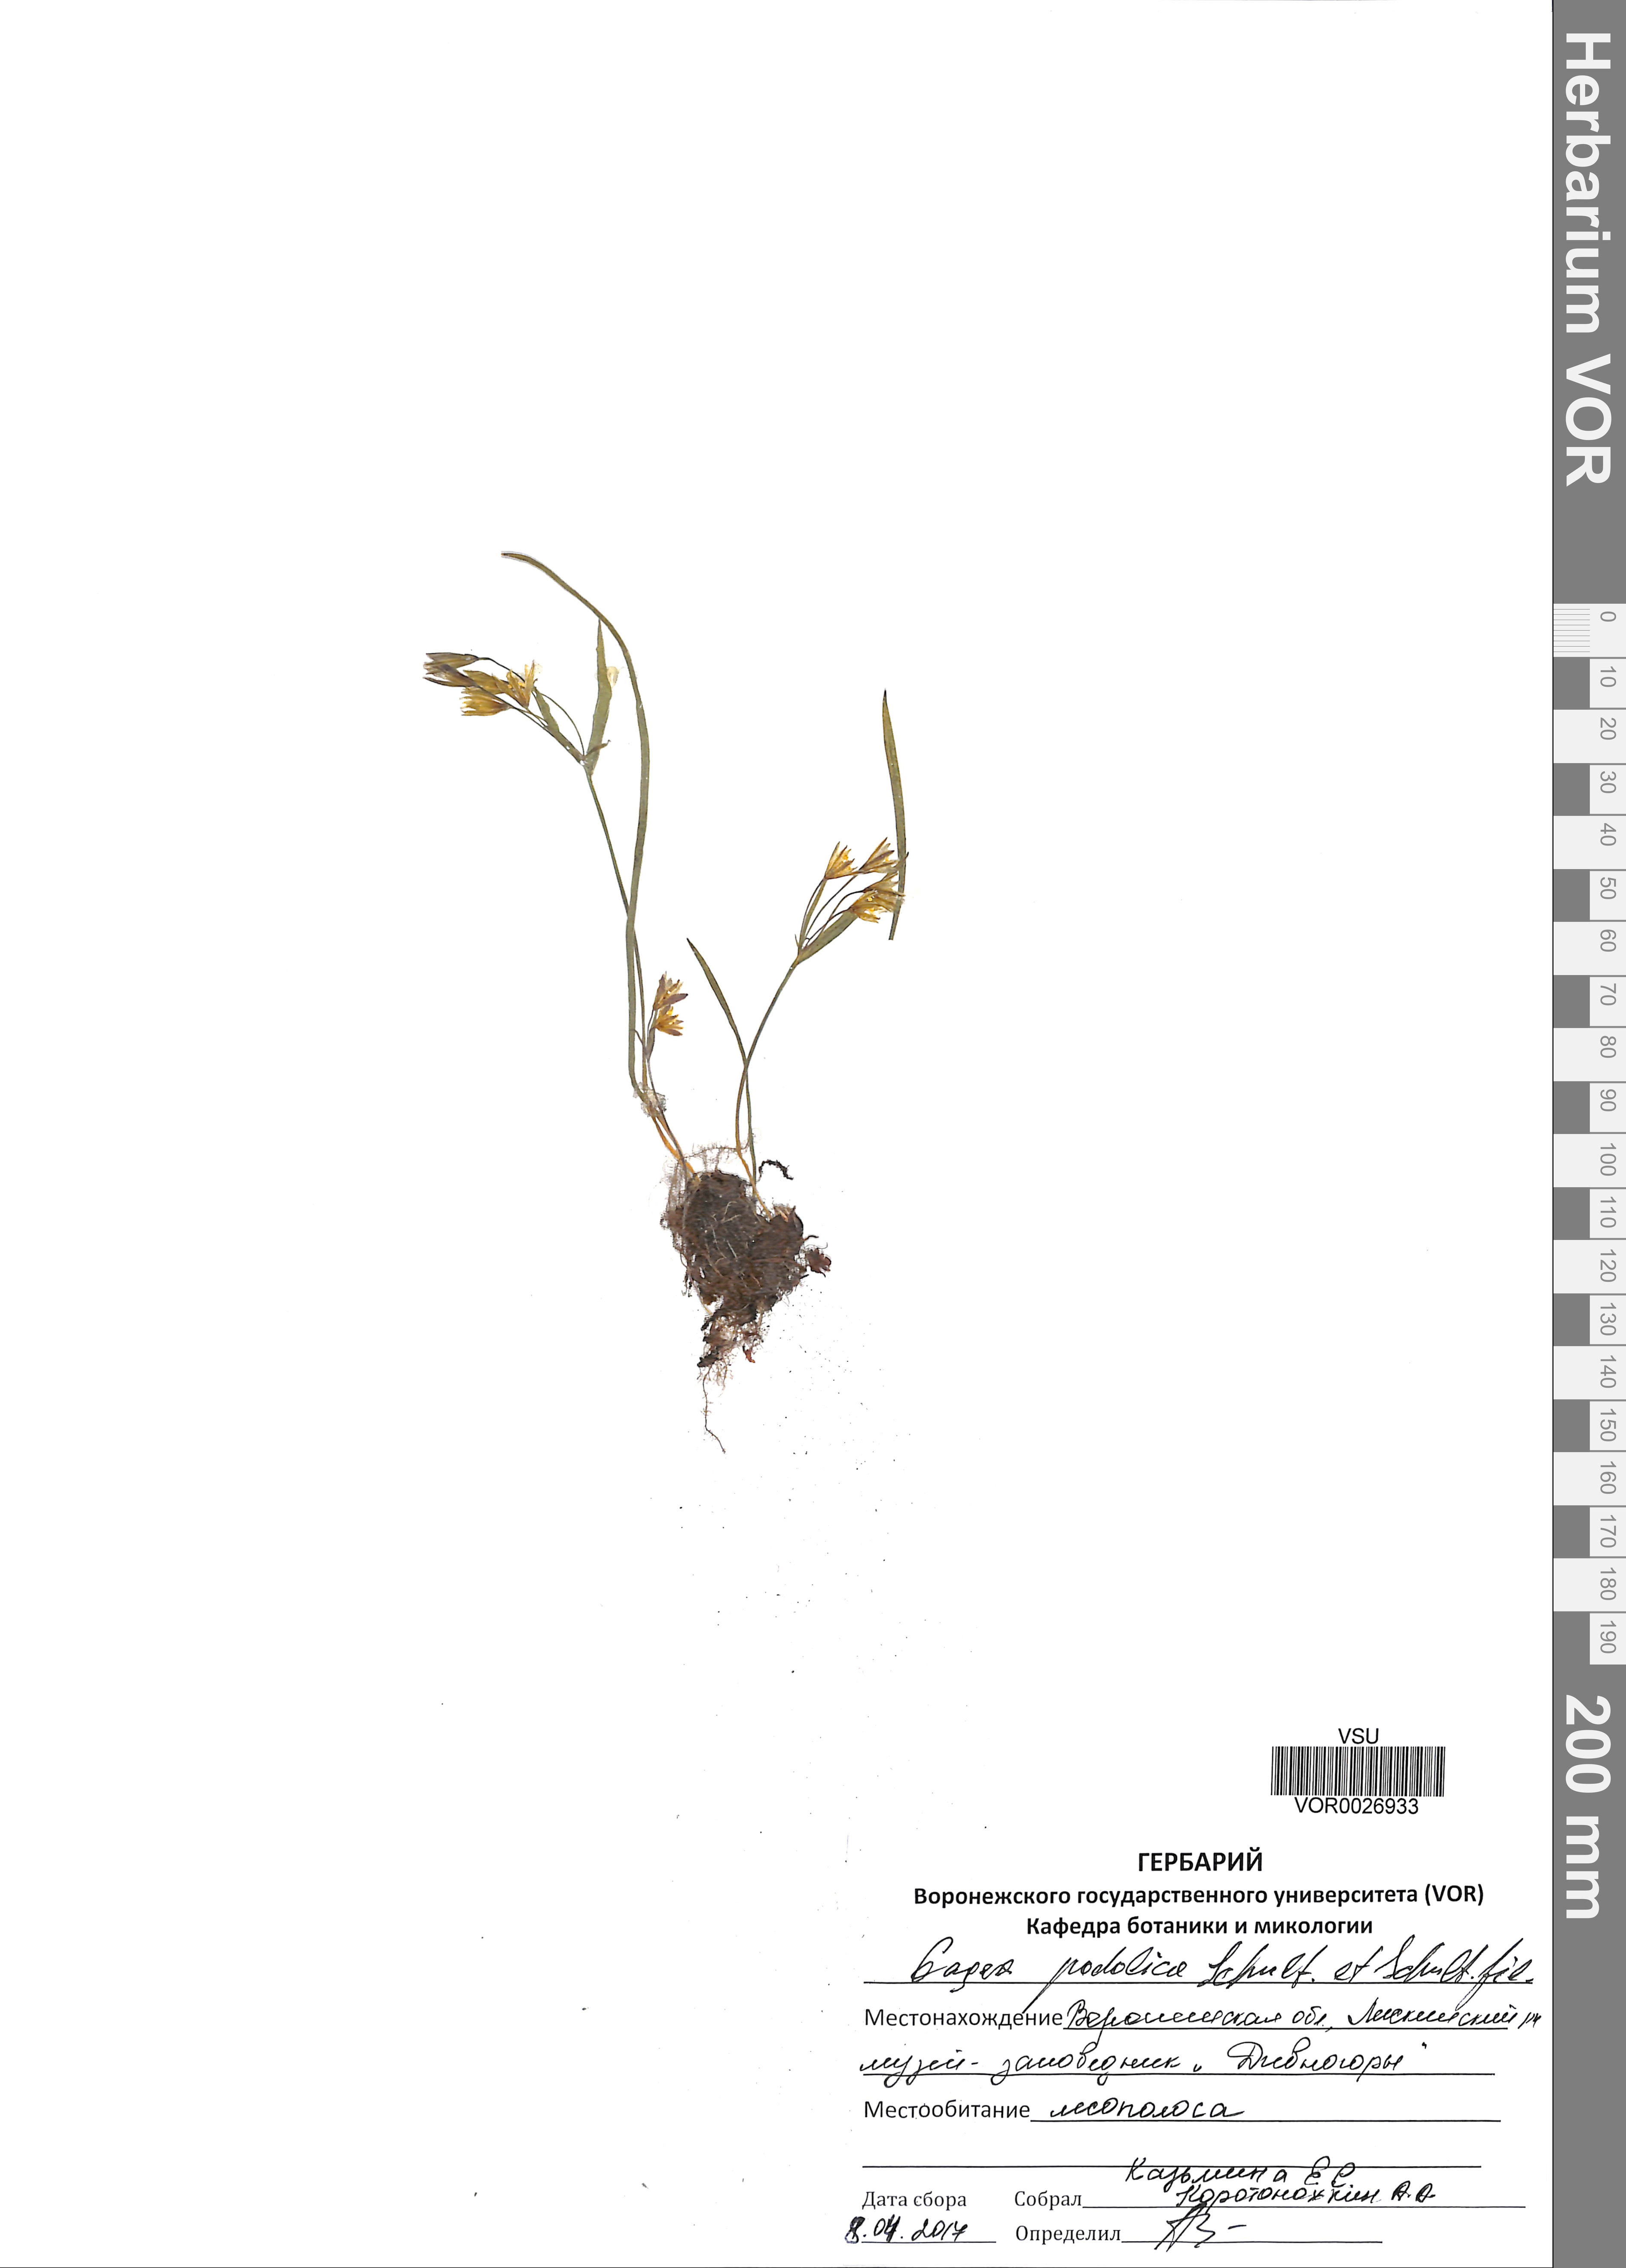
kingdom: Plantae
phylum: Tracheophyta
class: Liliopsida
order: Liliales
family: Liliaceae
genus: Gagea
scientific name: Gagea podolica
